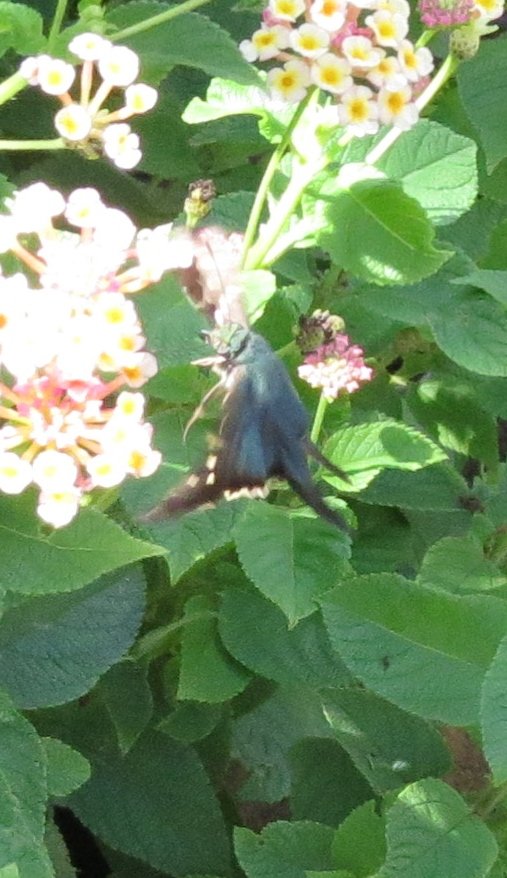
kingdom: Animalia
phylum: Arthropoda
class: Insecta
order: Lepidoptera
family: Hesperiidae
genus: Urbanus
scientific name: Urbanus proteus
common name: Long-tailed Skipper
